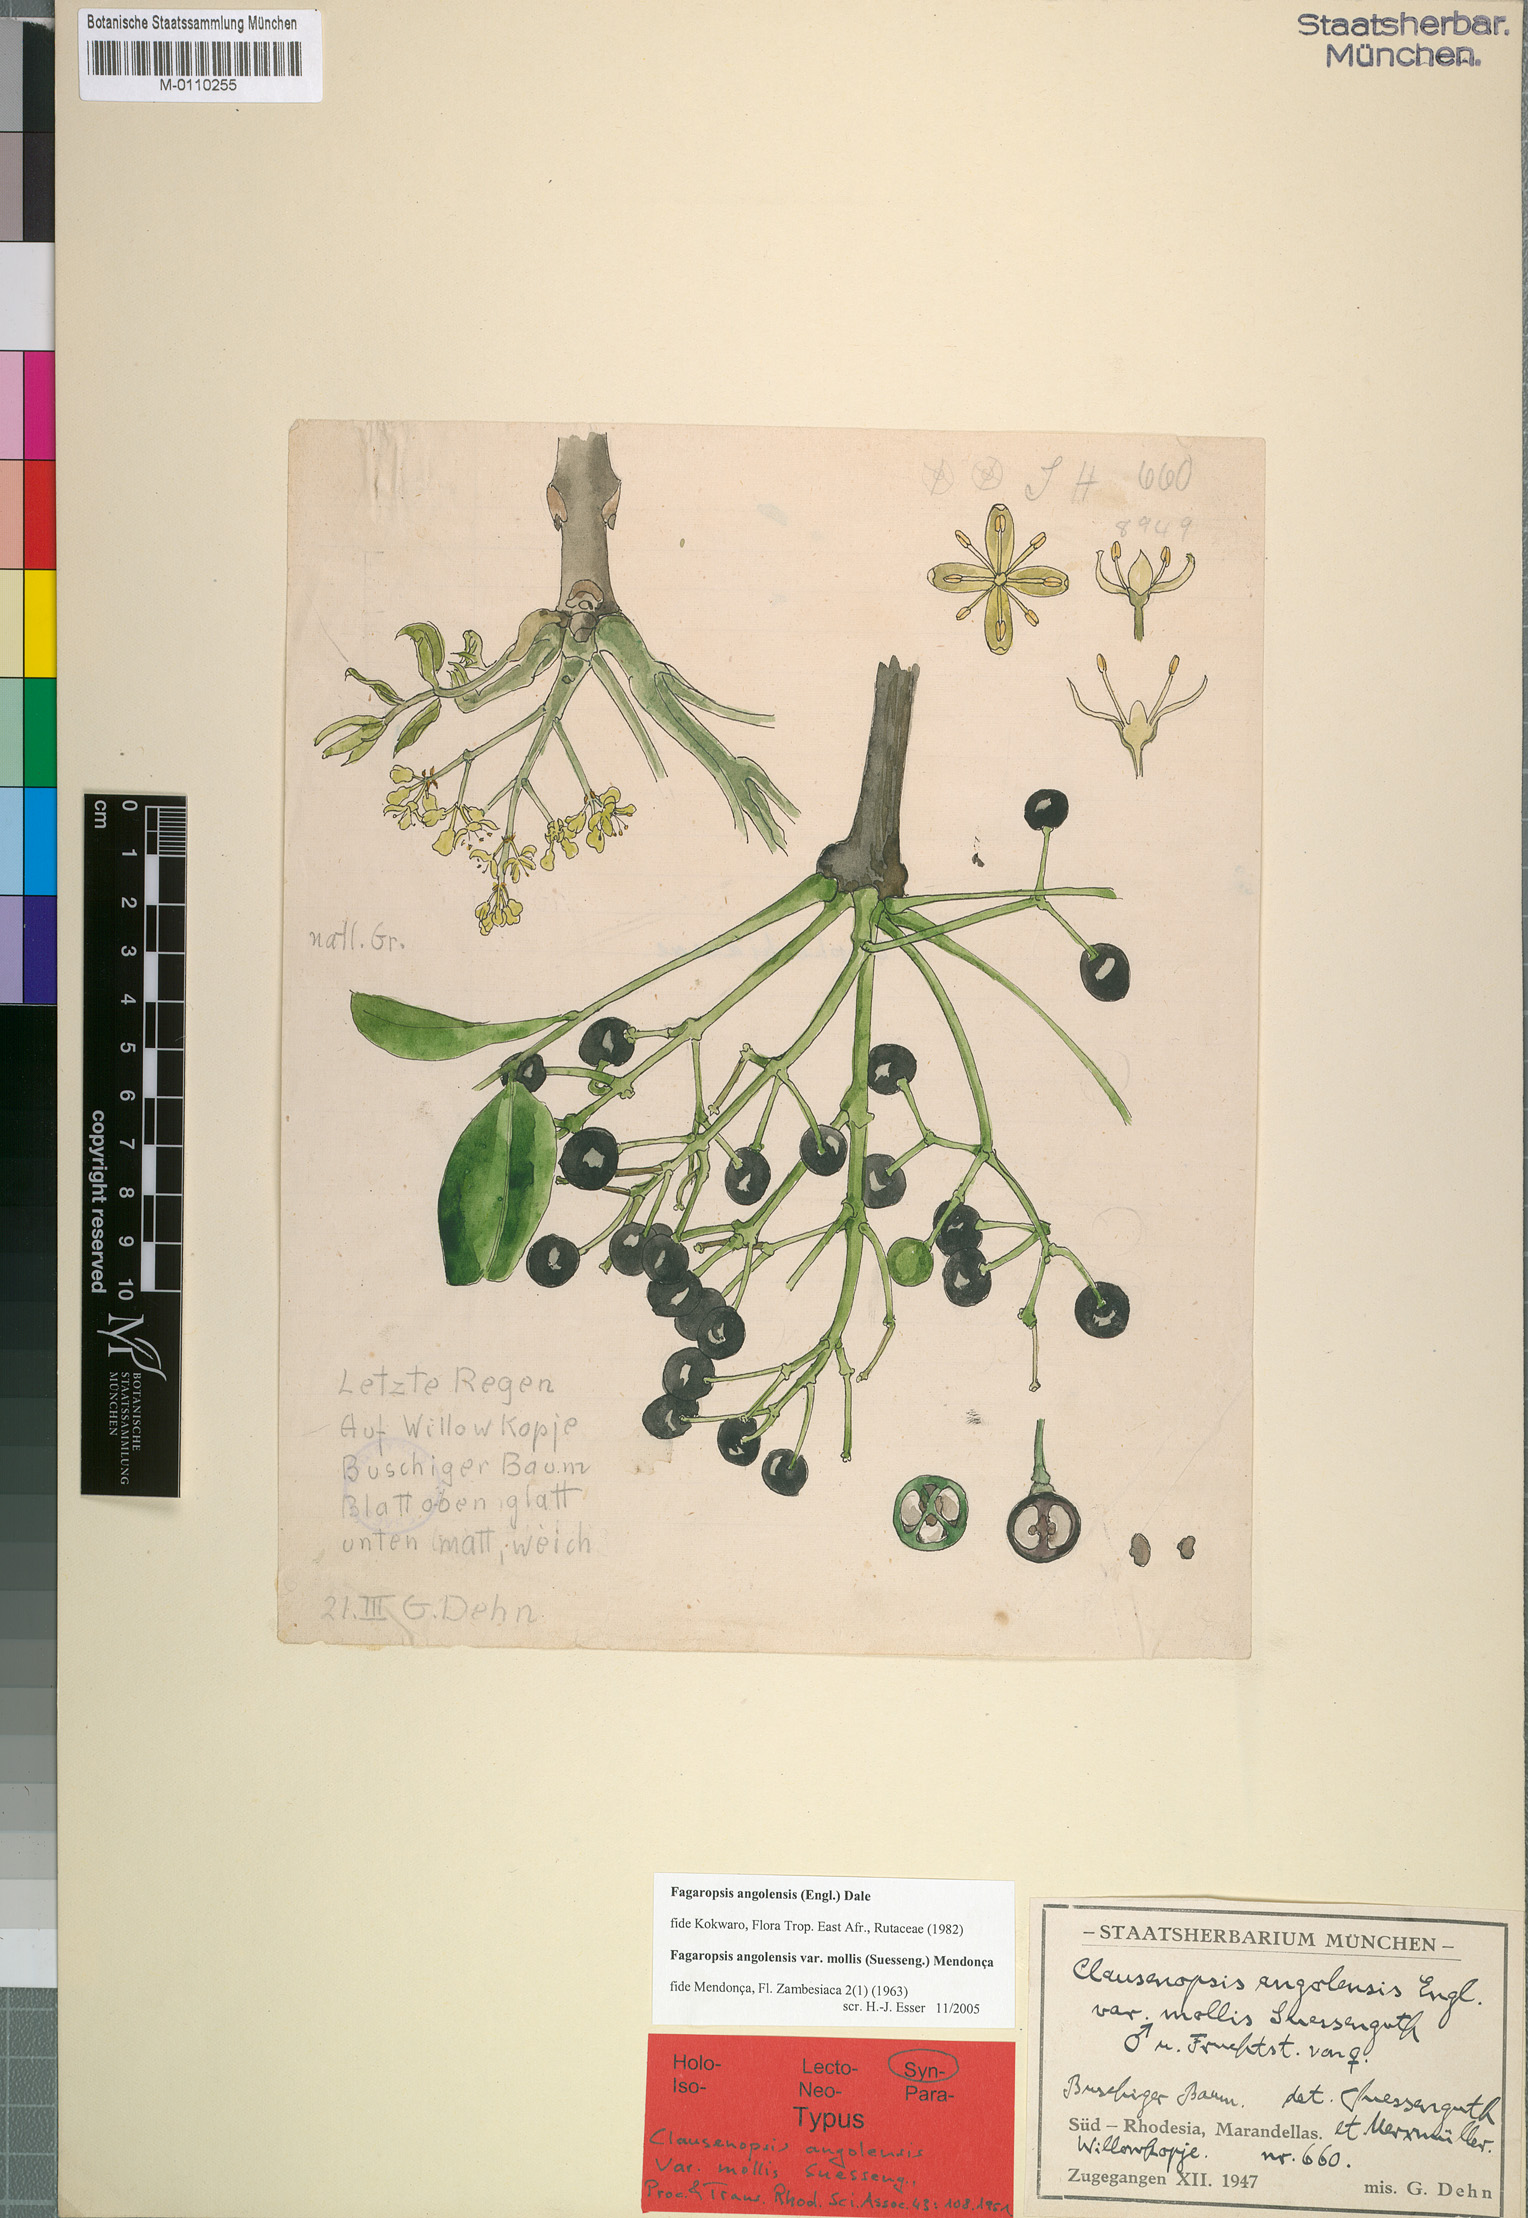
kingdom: Plantae
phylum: Tracheophyta
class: Magnoliopsida
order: Sapindales
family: Rutaceae
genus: Fagaropsis
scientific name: Fagaropsis angolensis
